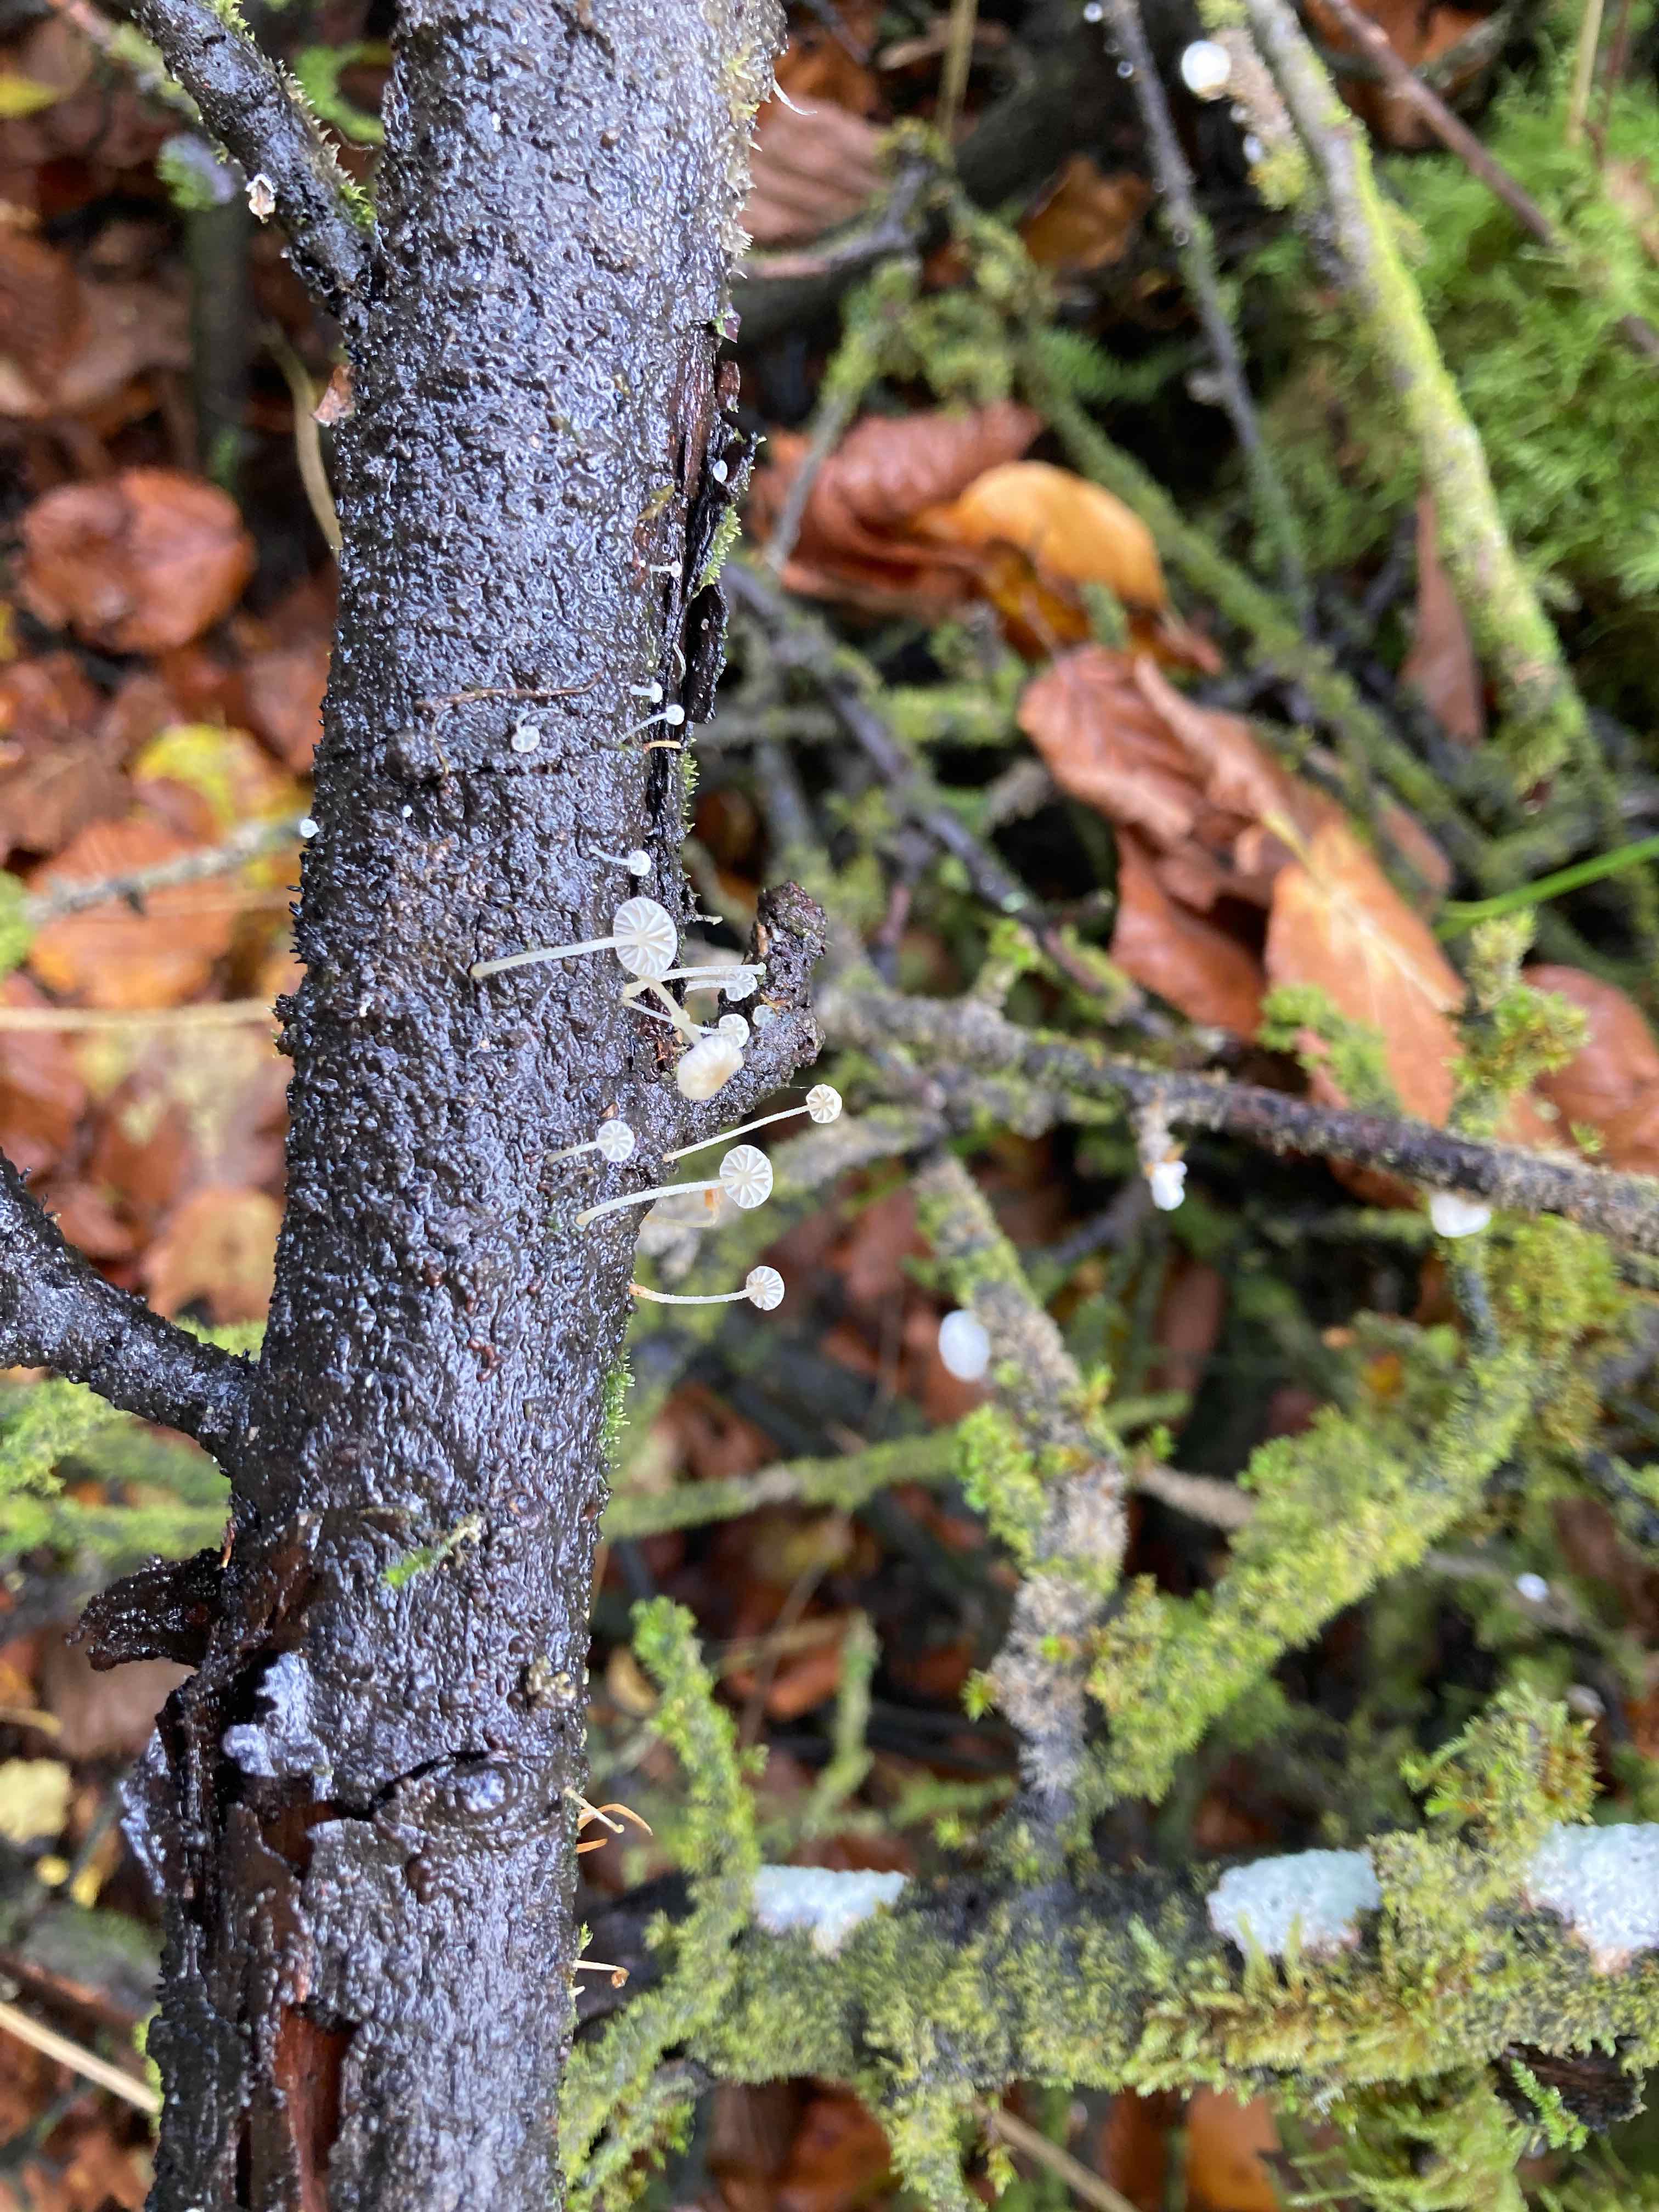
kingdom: Fungi
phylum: Basidiomycota
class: Agaricomycetes
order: Agaricales
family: Porotheleaceae
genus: Phloeomana
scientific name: Phloeomana speirea
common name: kvist-huesvamp
